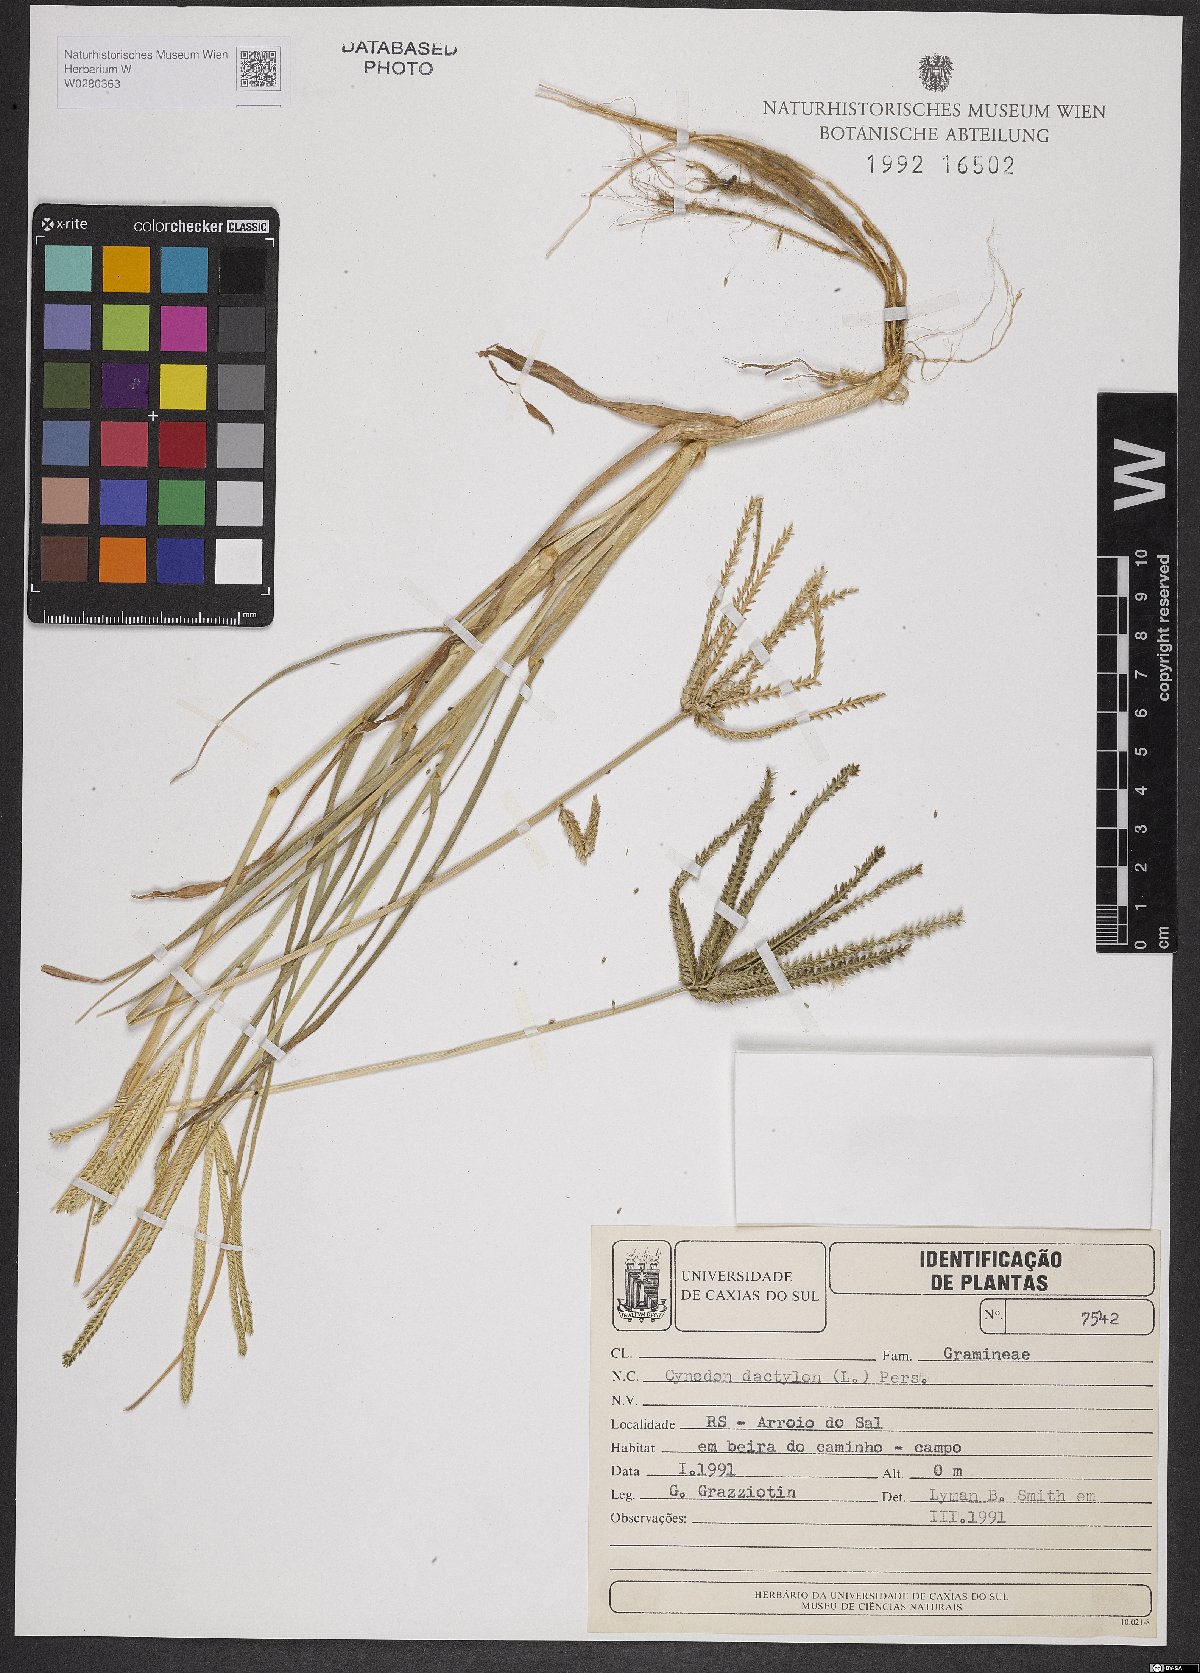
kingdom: Plantae
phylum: Tracheophyta
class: Liliopsida
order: Poales
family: Poaceae
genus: Cynodon
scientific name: Cynodon dactylon
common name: Bermuda grass
